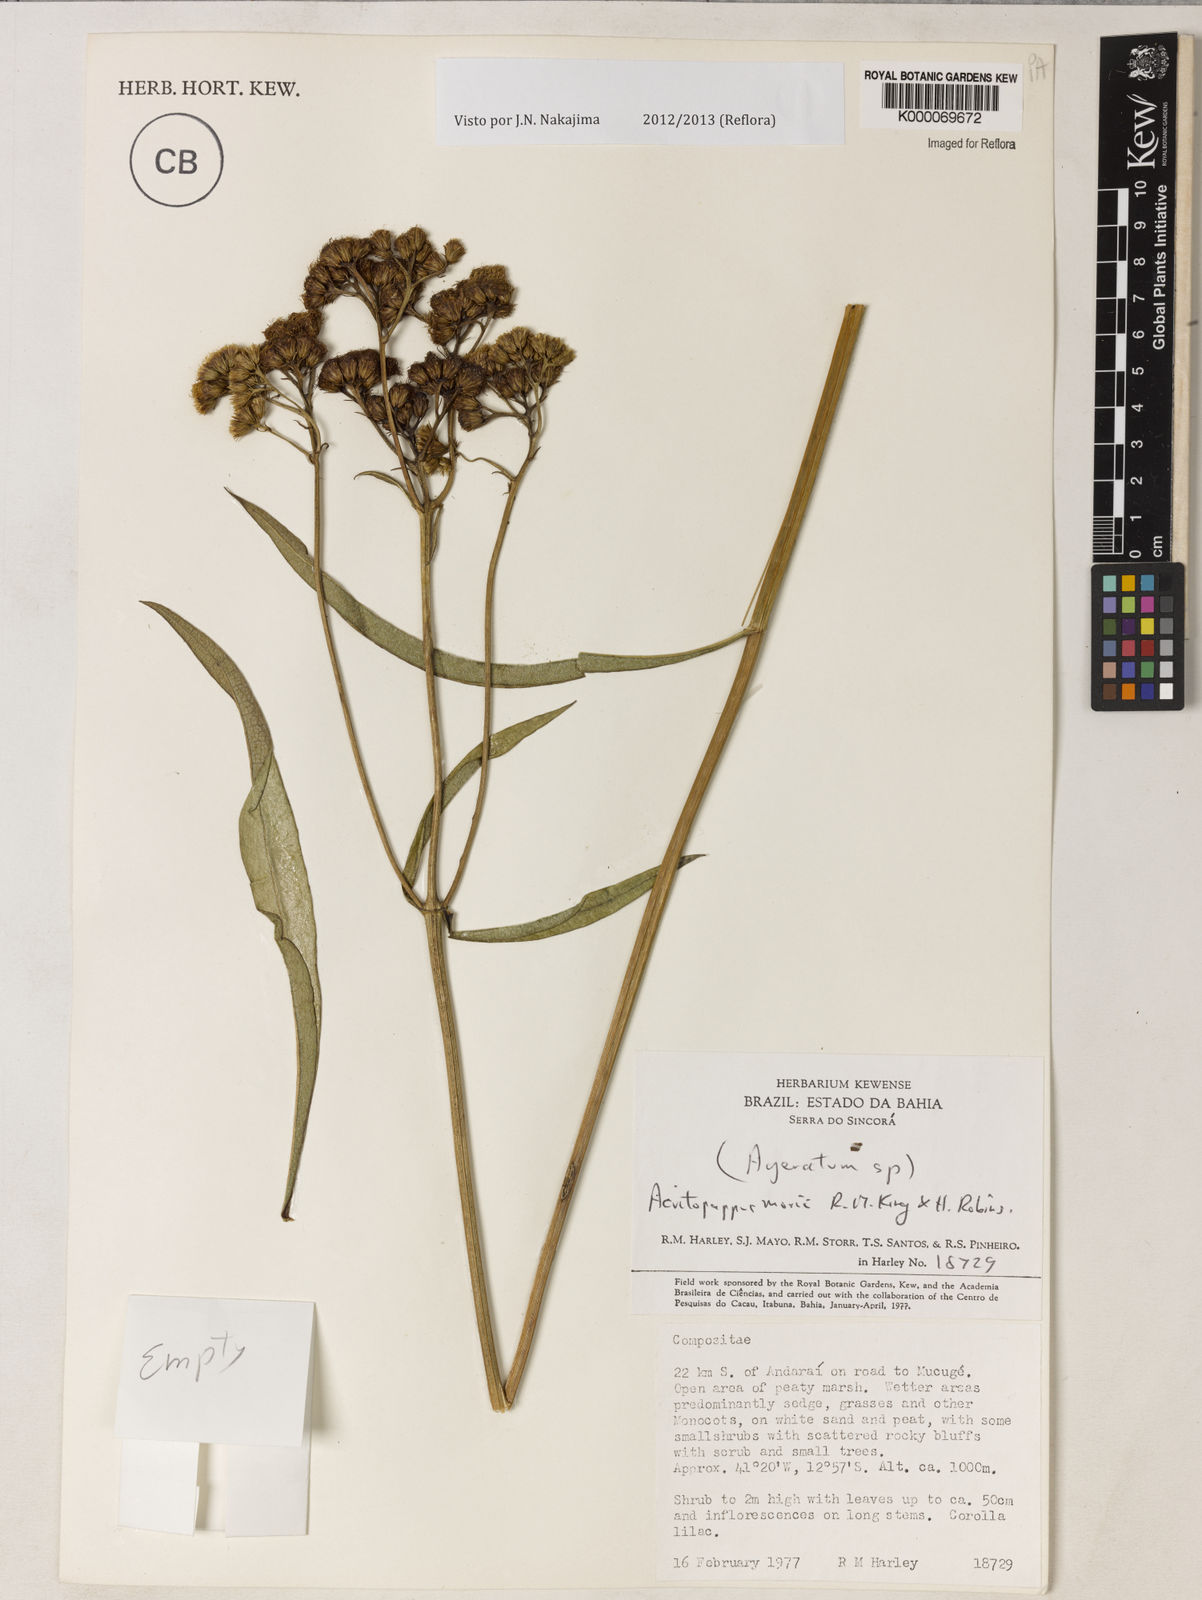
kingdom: Plantae
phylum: Tracheophyta
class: Magnoliopsida
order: Asterales
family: Asteraceae
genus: Acritopappus
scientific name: Acritopappus morii
